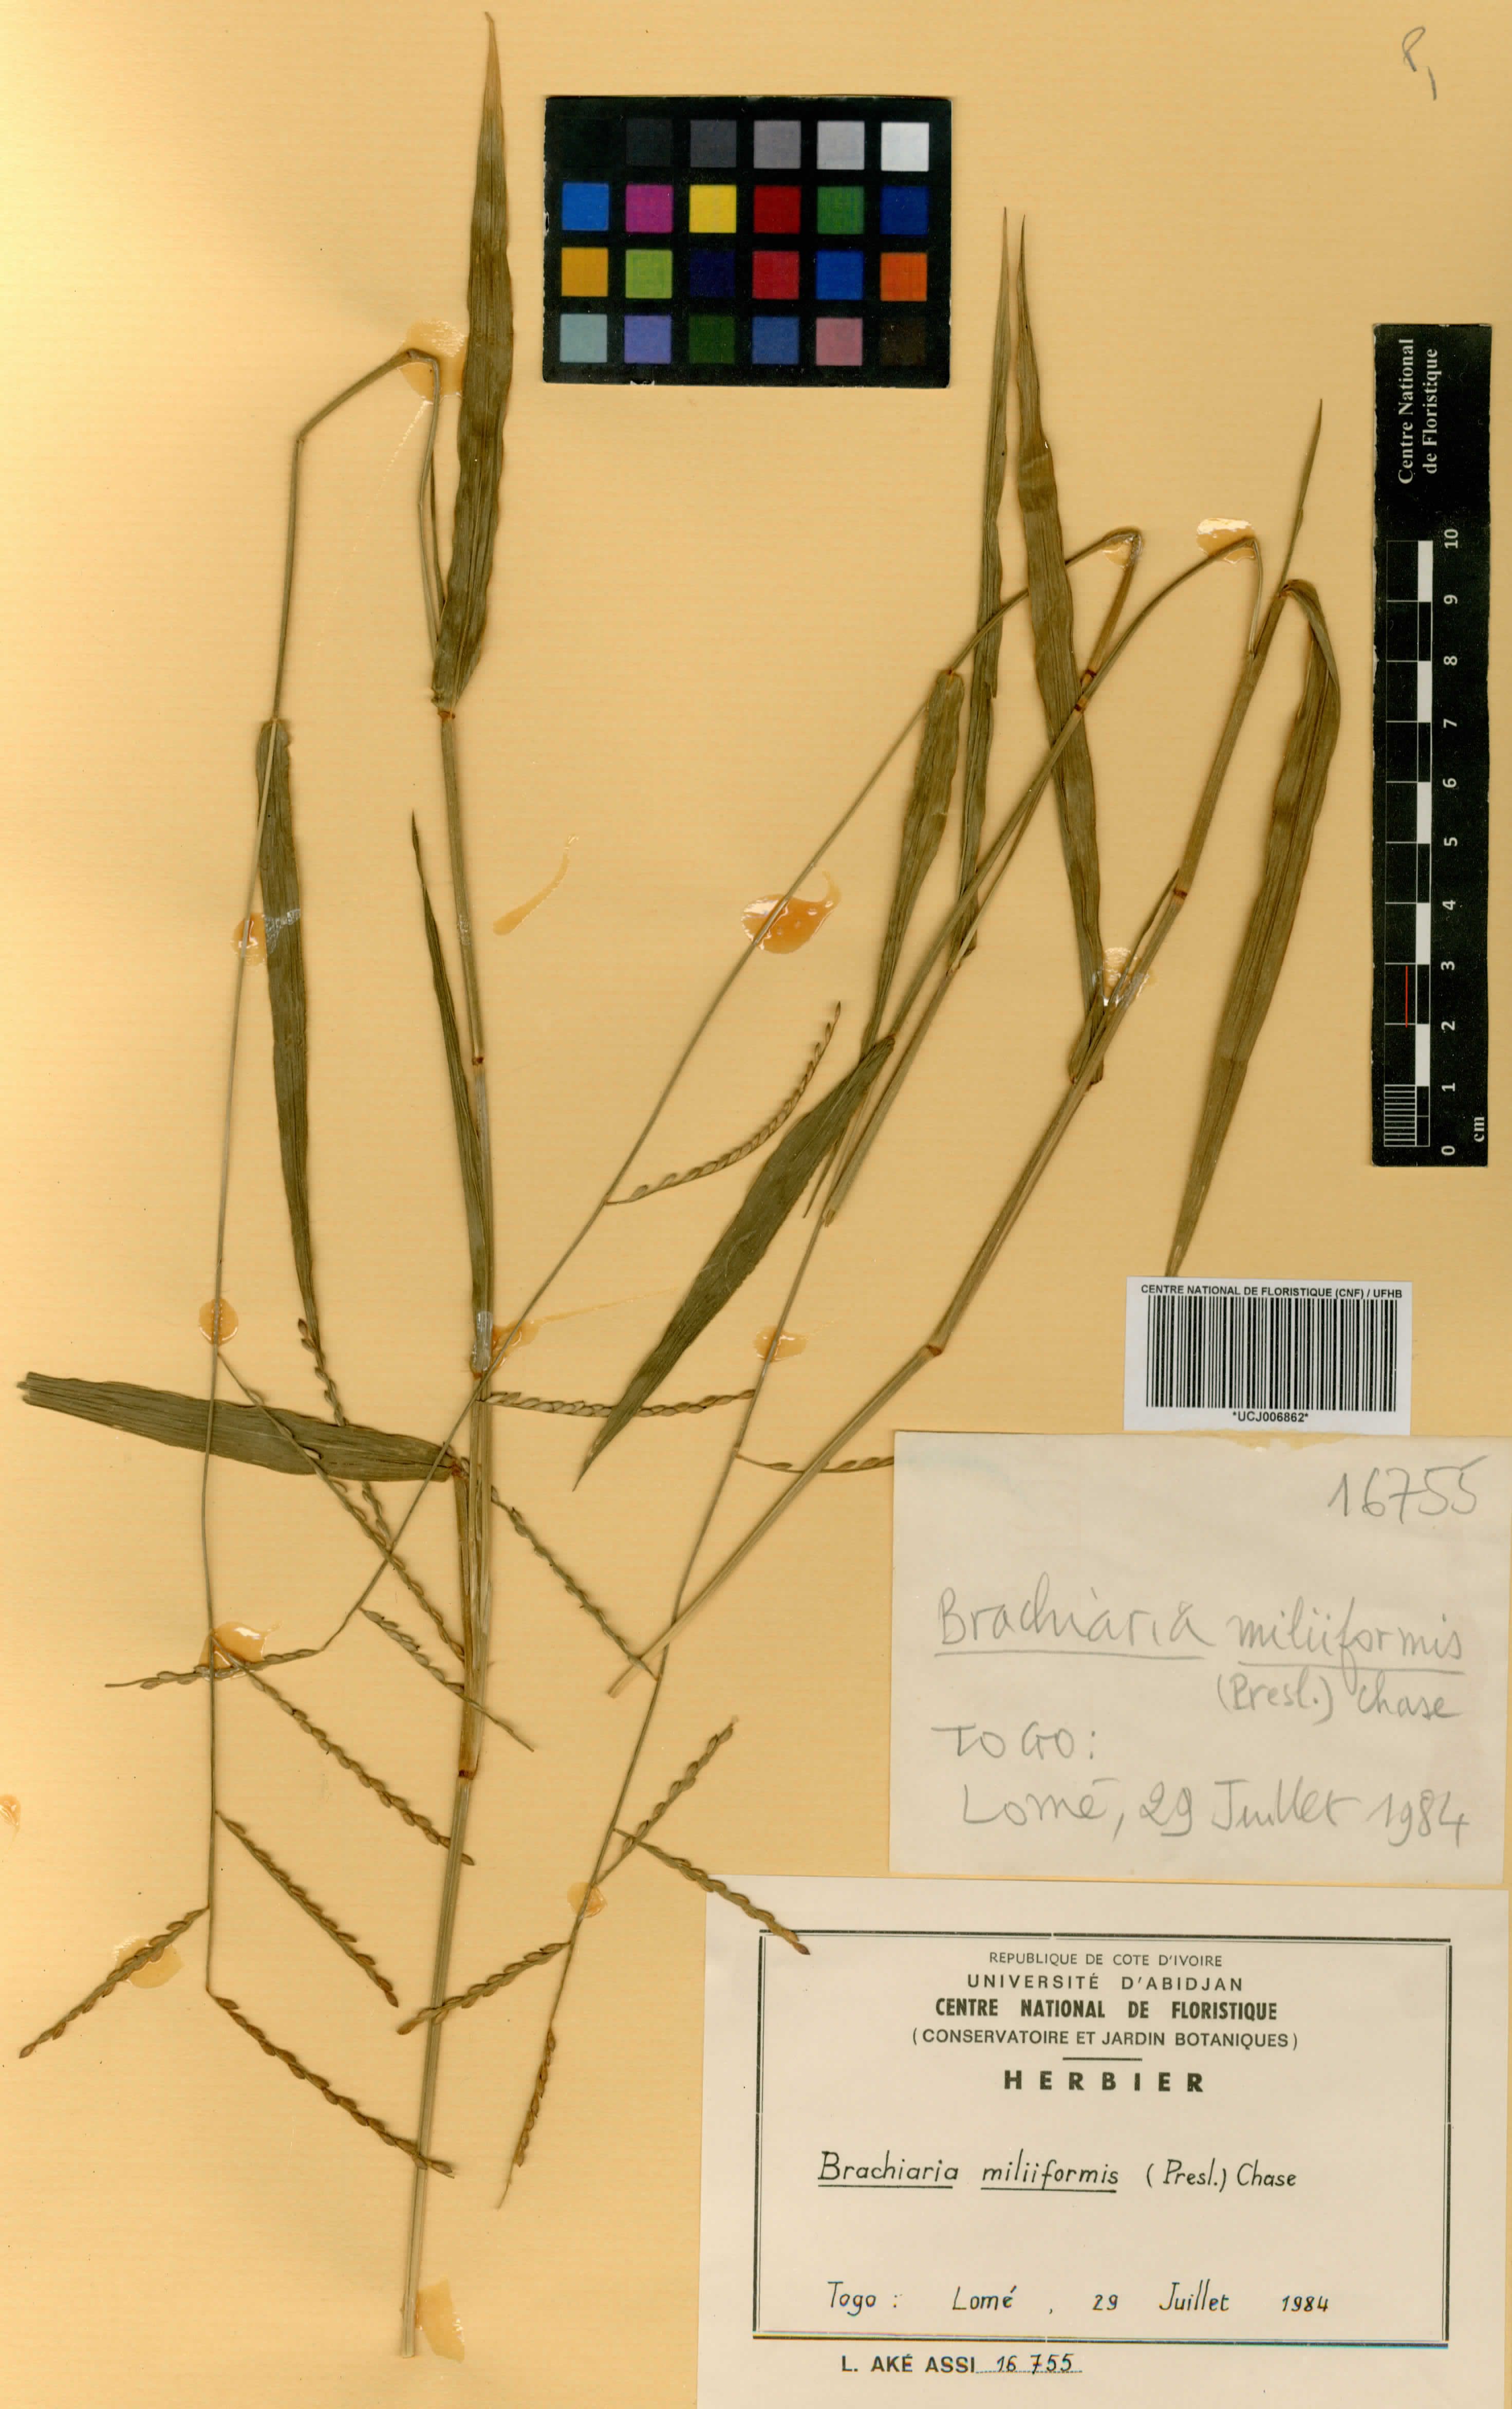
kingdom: Plantae
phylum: Tracheophyta
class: Liliopsida
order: Poales
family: Poaceae
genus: Urochloa
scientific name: Urochloa subquadripara
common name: Armgrass millet
